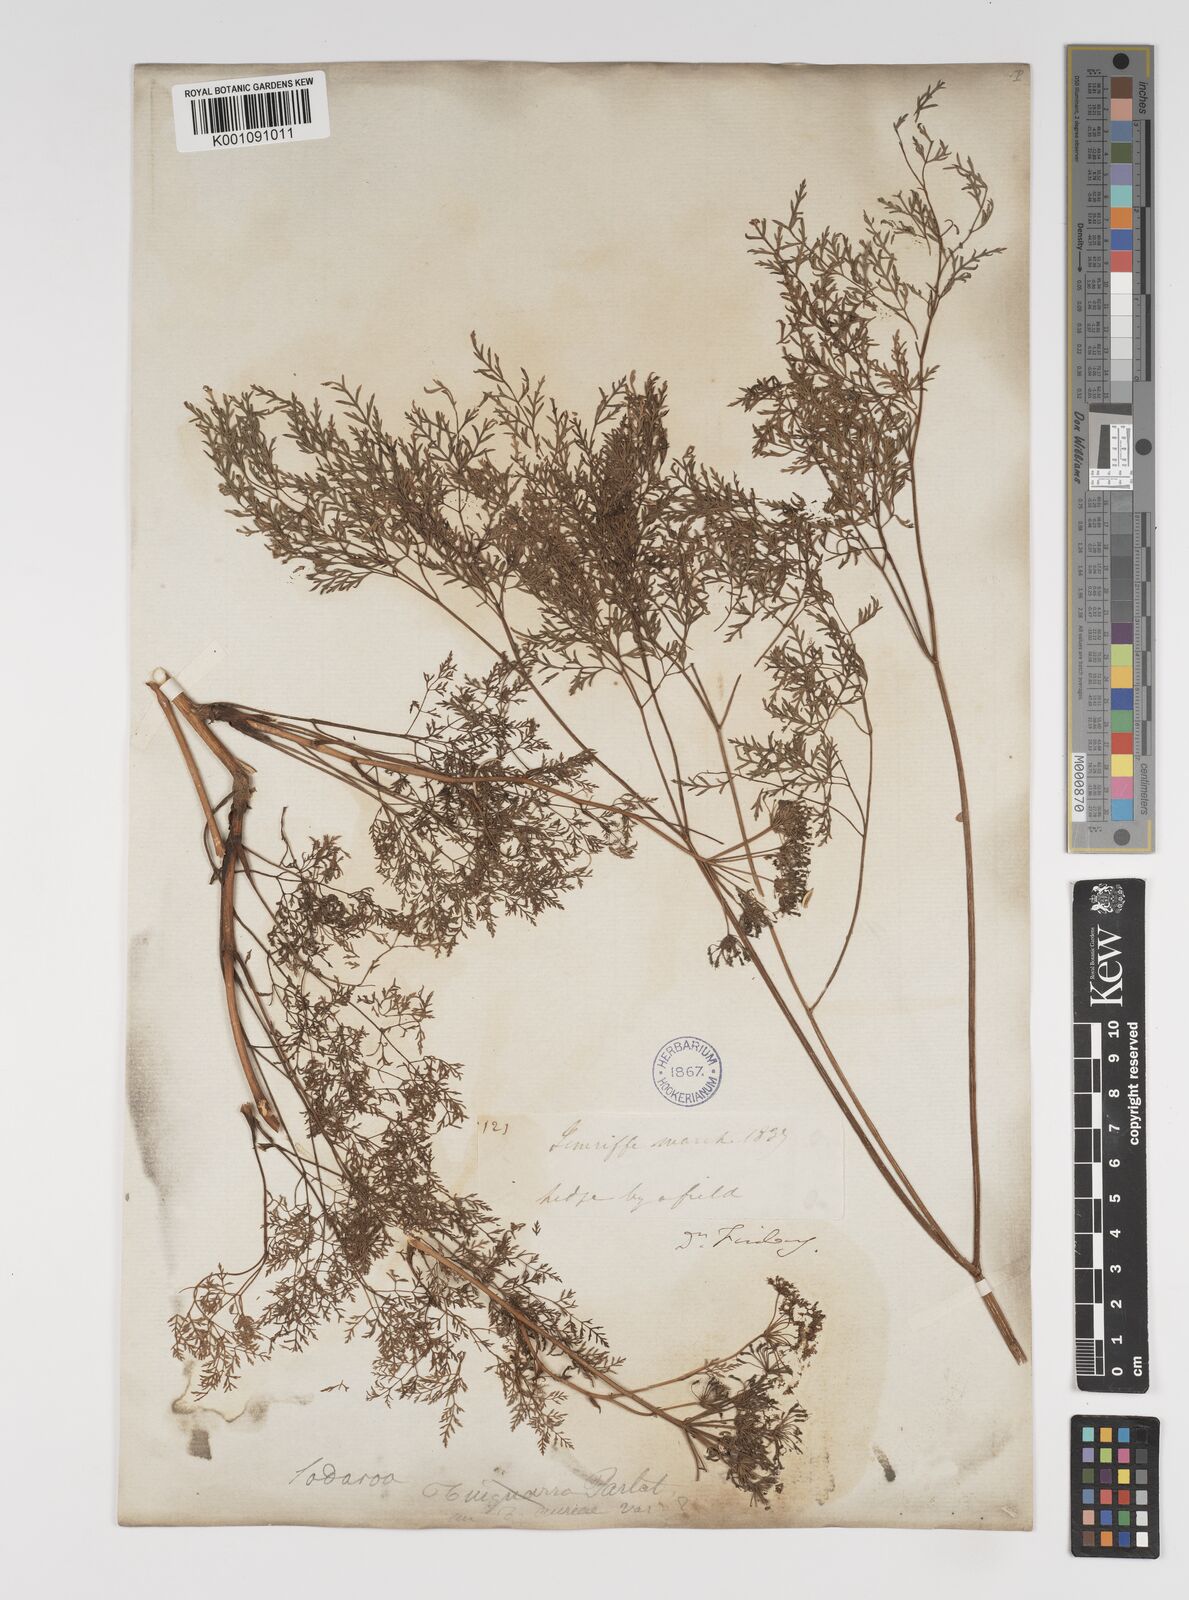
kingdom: Plantae
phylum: Tracheophyta
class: Magnoliopsida
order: Apiales
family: Apiaceae
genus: Todaroa
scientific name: Todaroa aurea
